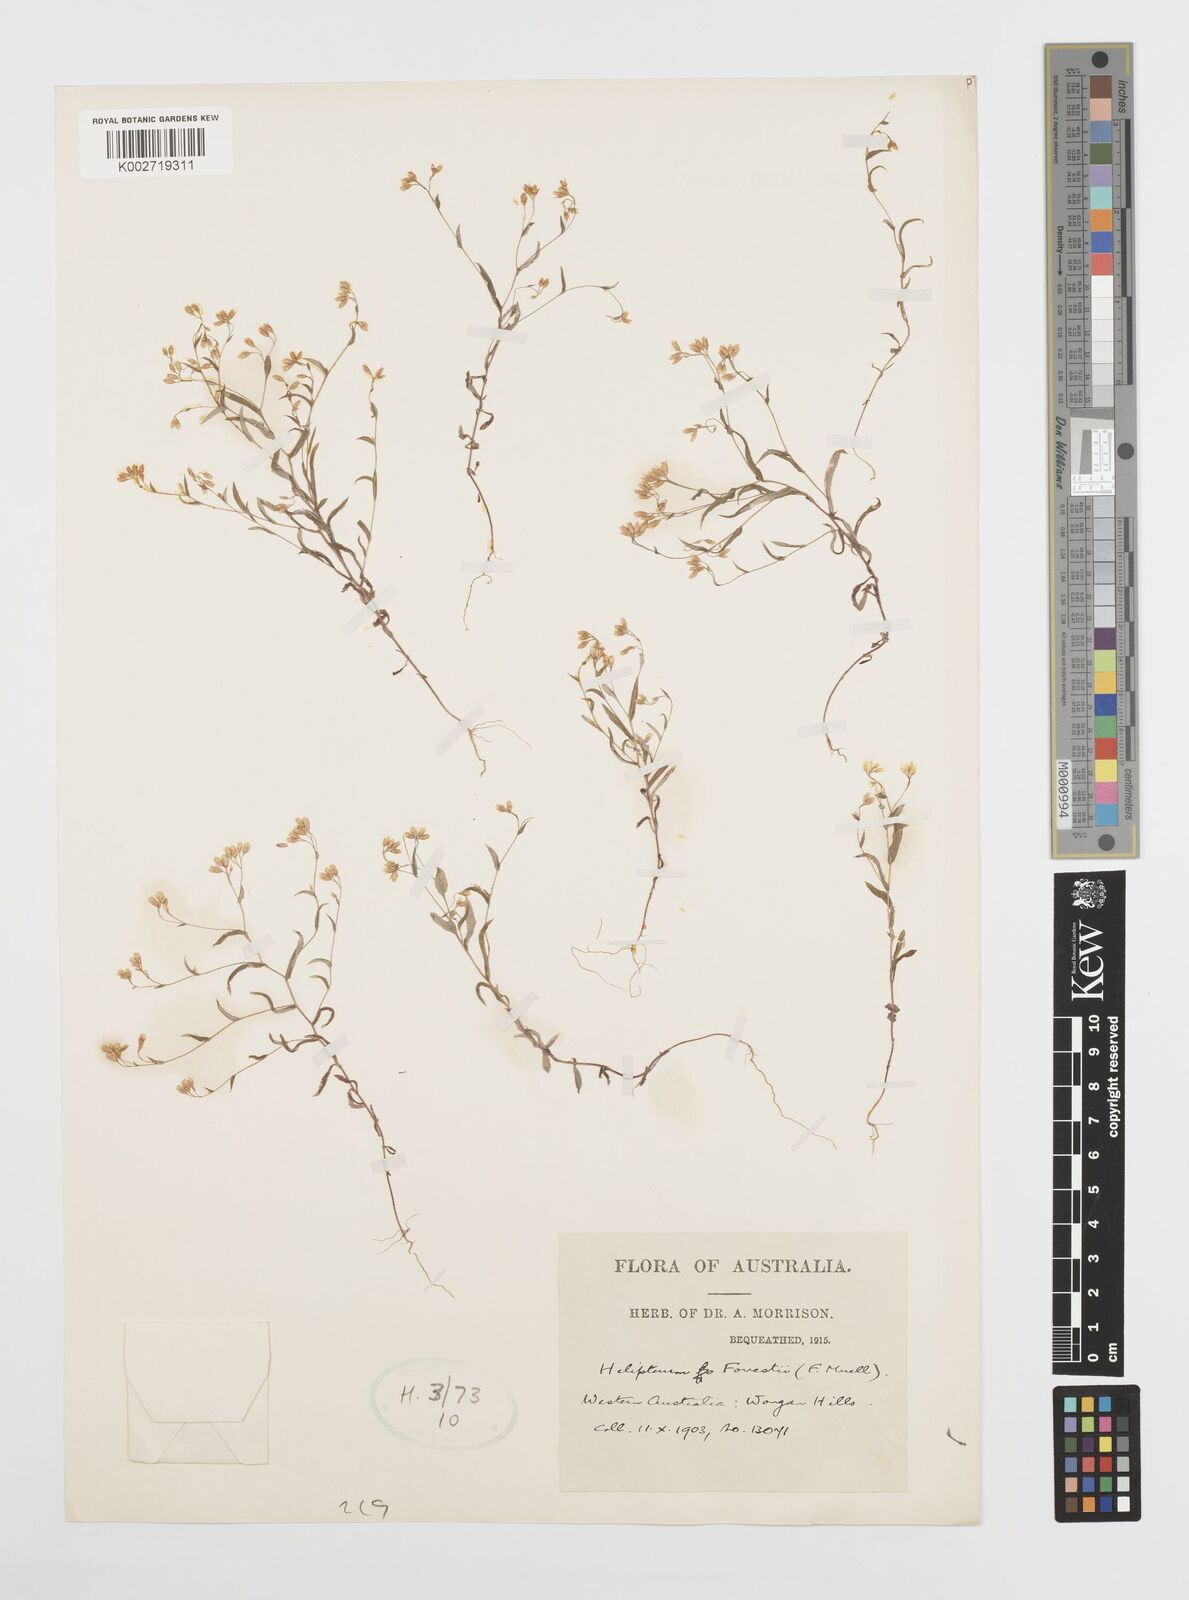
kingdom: Plantae
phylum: Tracheophyta
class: Magnoliopsida
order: Asterales
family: Asteraceae
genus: Rhodanthe
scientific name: Rhodanthe forrestii
